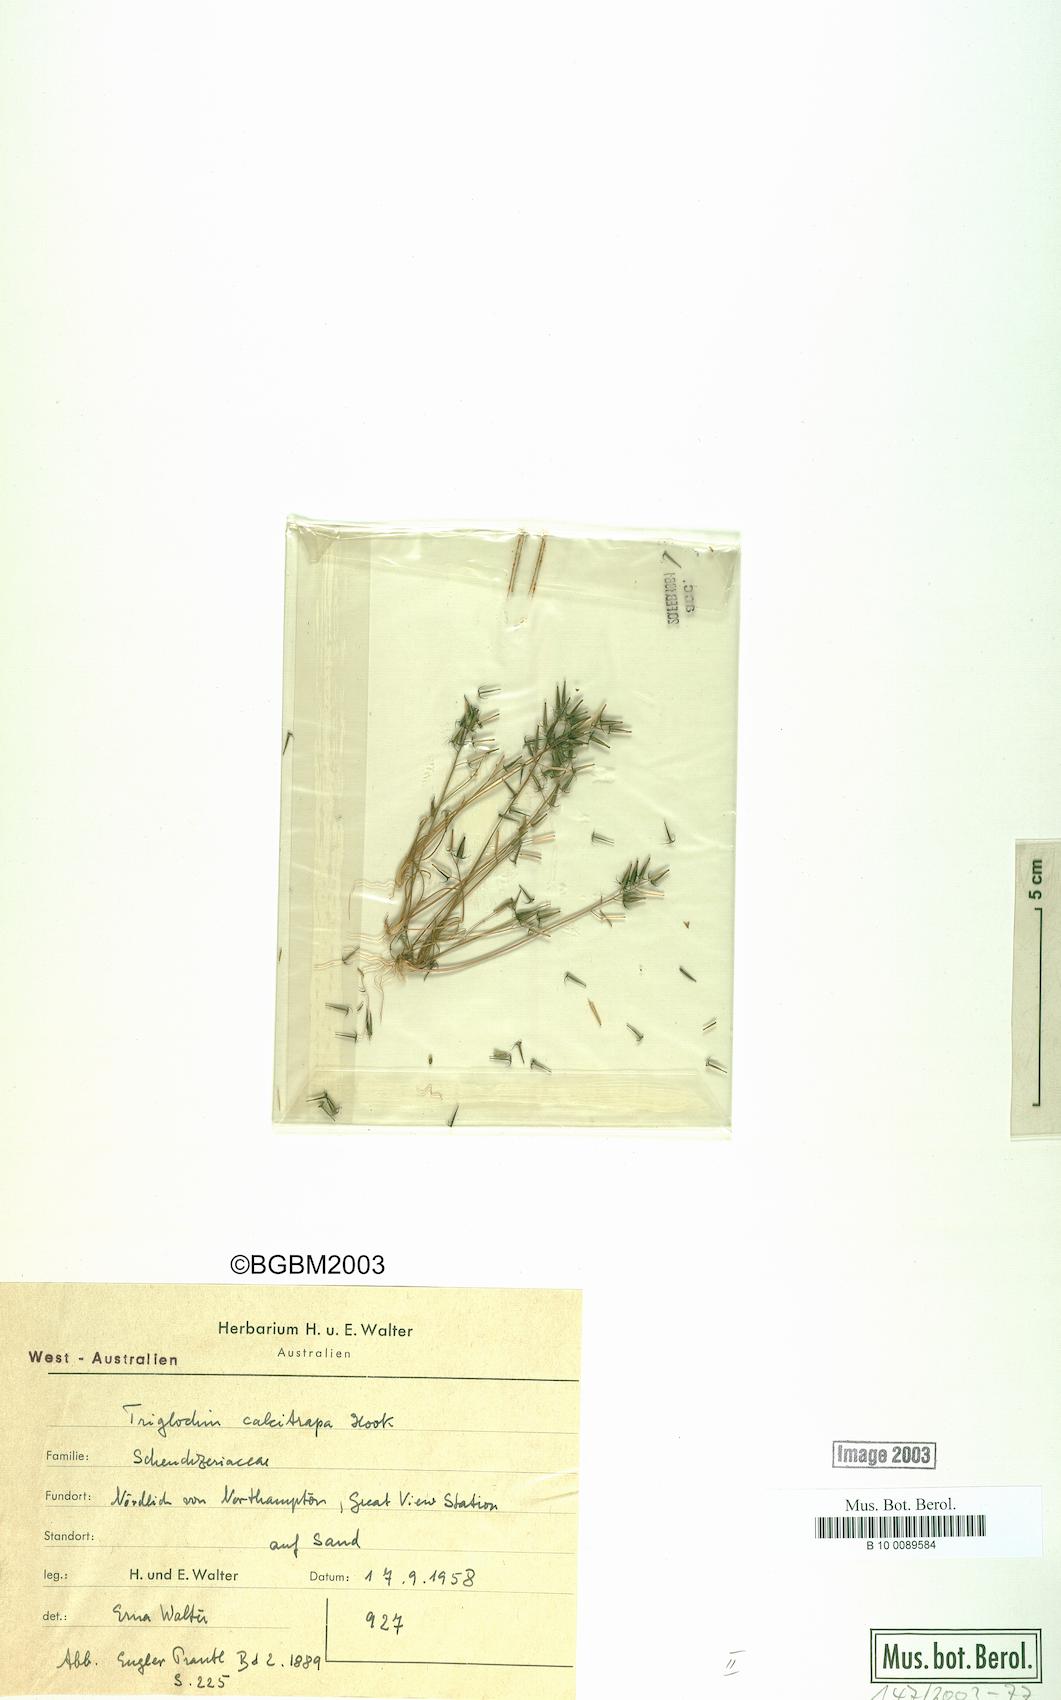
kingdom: Plantae
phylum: Tracheophyta
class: Liliopsida
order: Alismatales
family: Juncaginaceae
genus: Triglochin
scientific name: Triglochin calcitrapa
